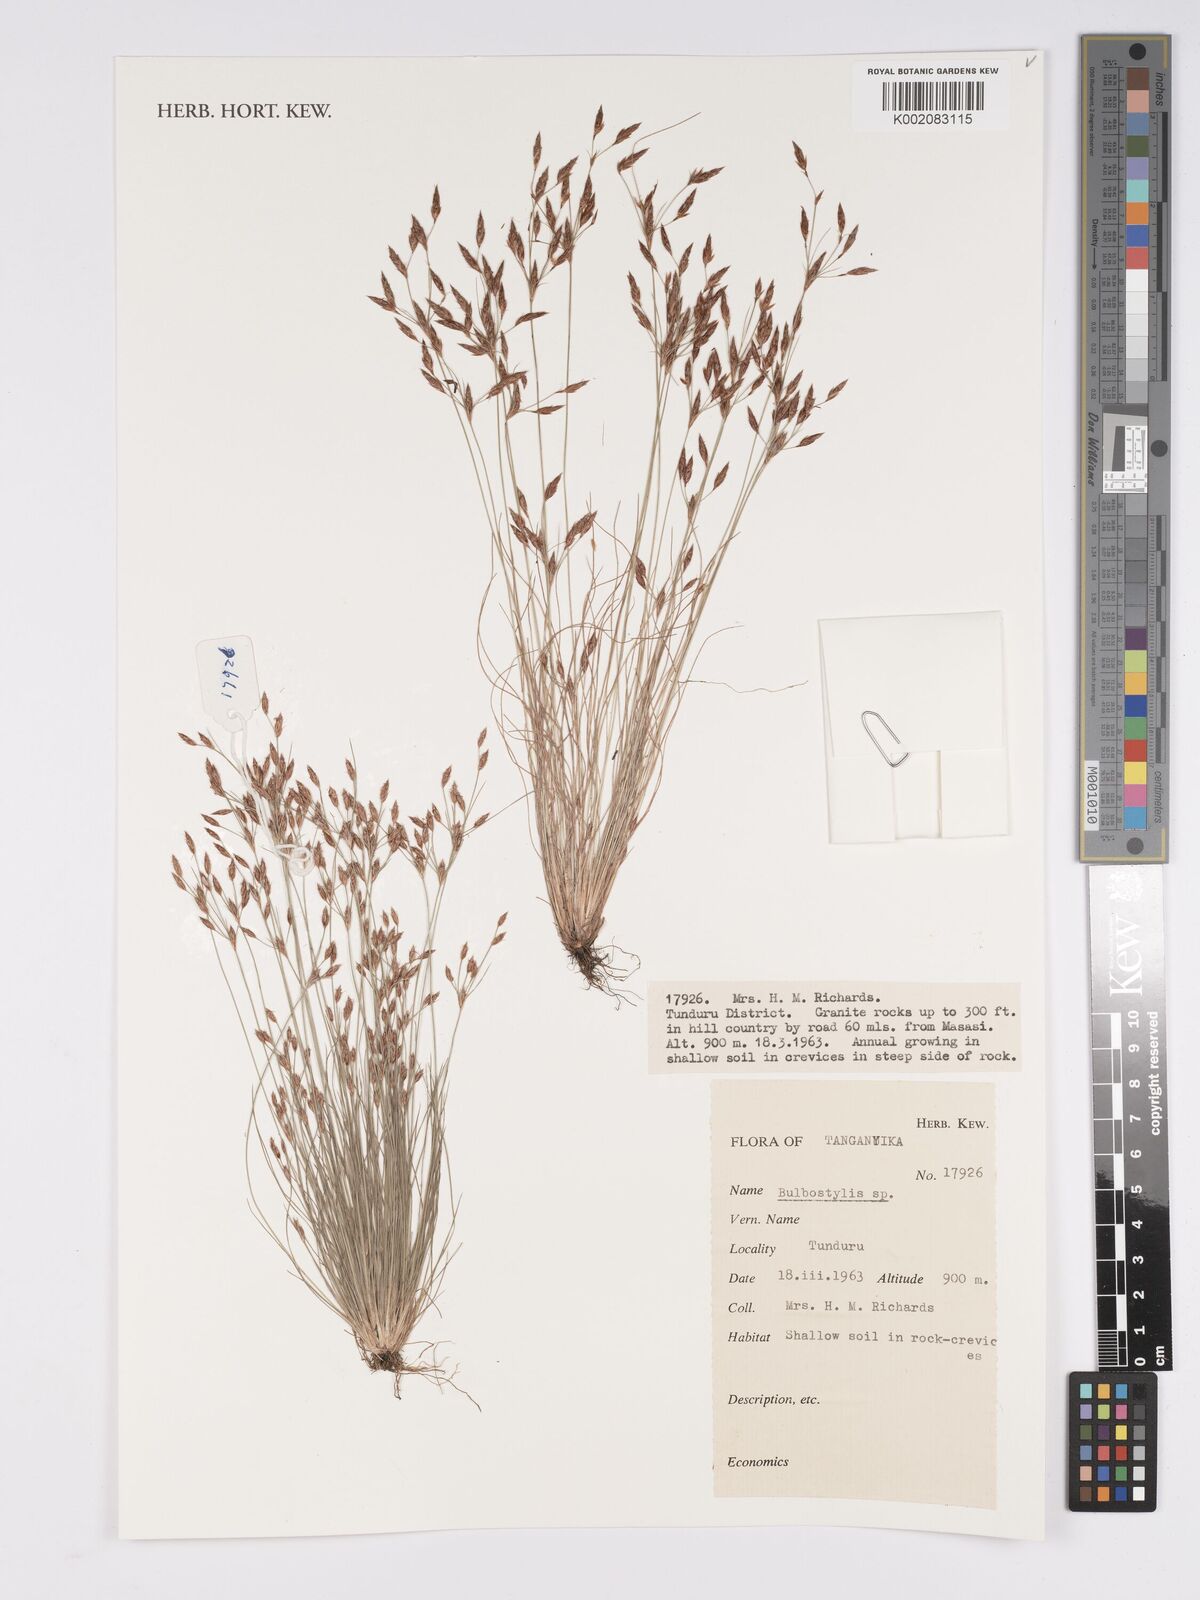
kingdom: Plantae
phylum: Tracheophyta
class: Magnoliopsida
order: Asterales
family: Asteraceae
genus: Bulbostylis
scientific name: Bulbostylis
